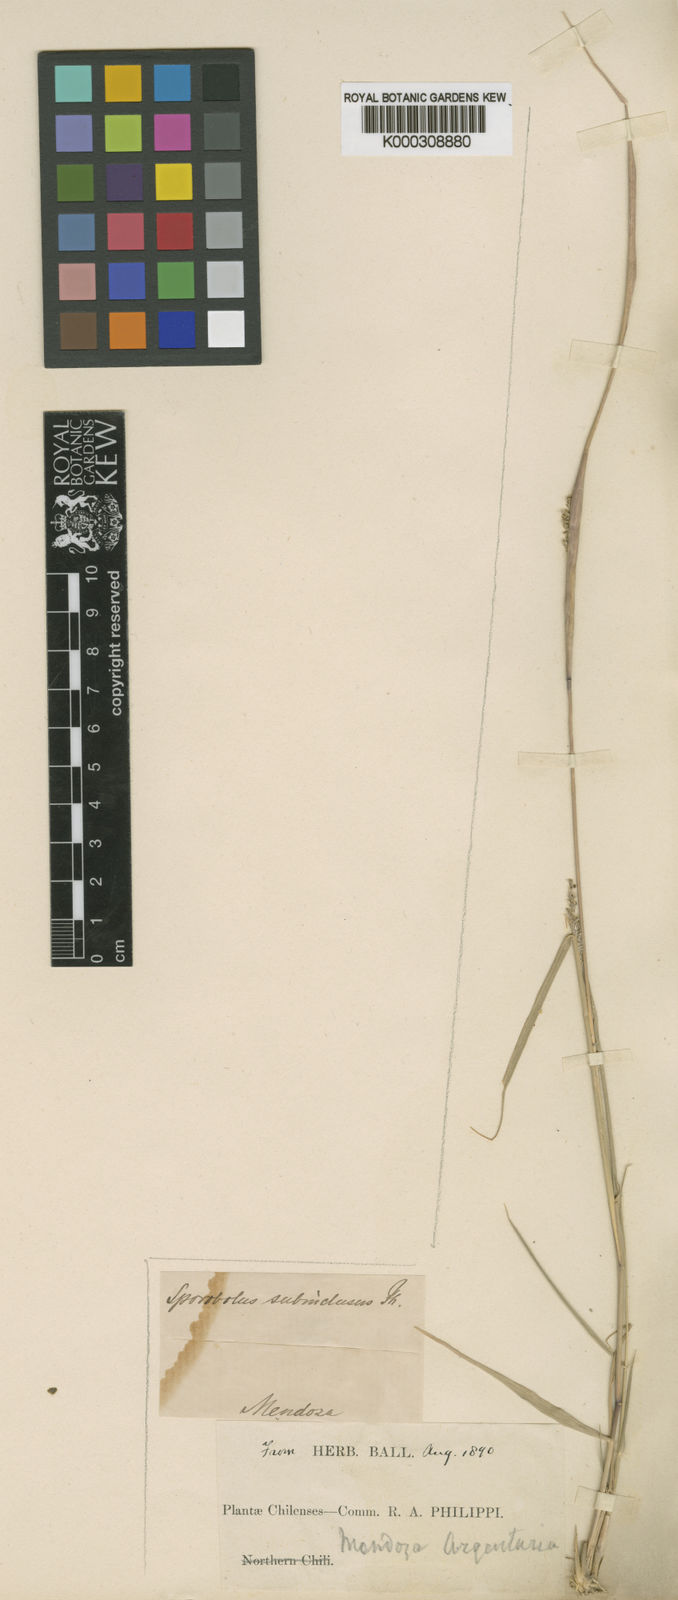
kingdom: Plantae
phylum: Tracheophyta
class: Liliopsida
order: Poales
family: Poaceae
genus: Sporobolus
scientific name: Sporobolus cryptandrus
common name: Sand dropseed
